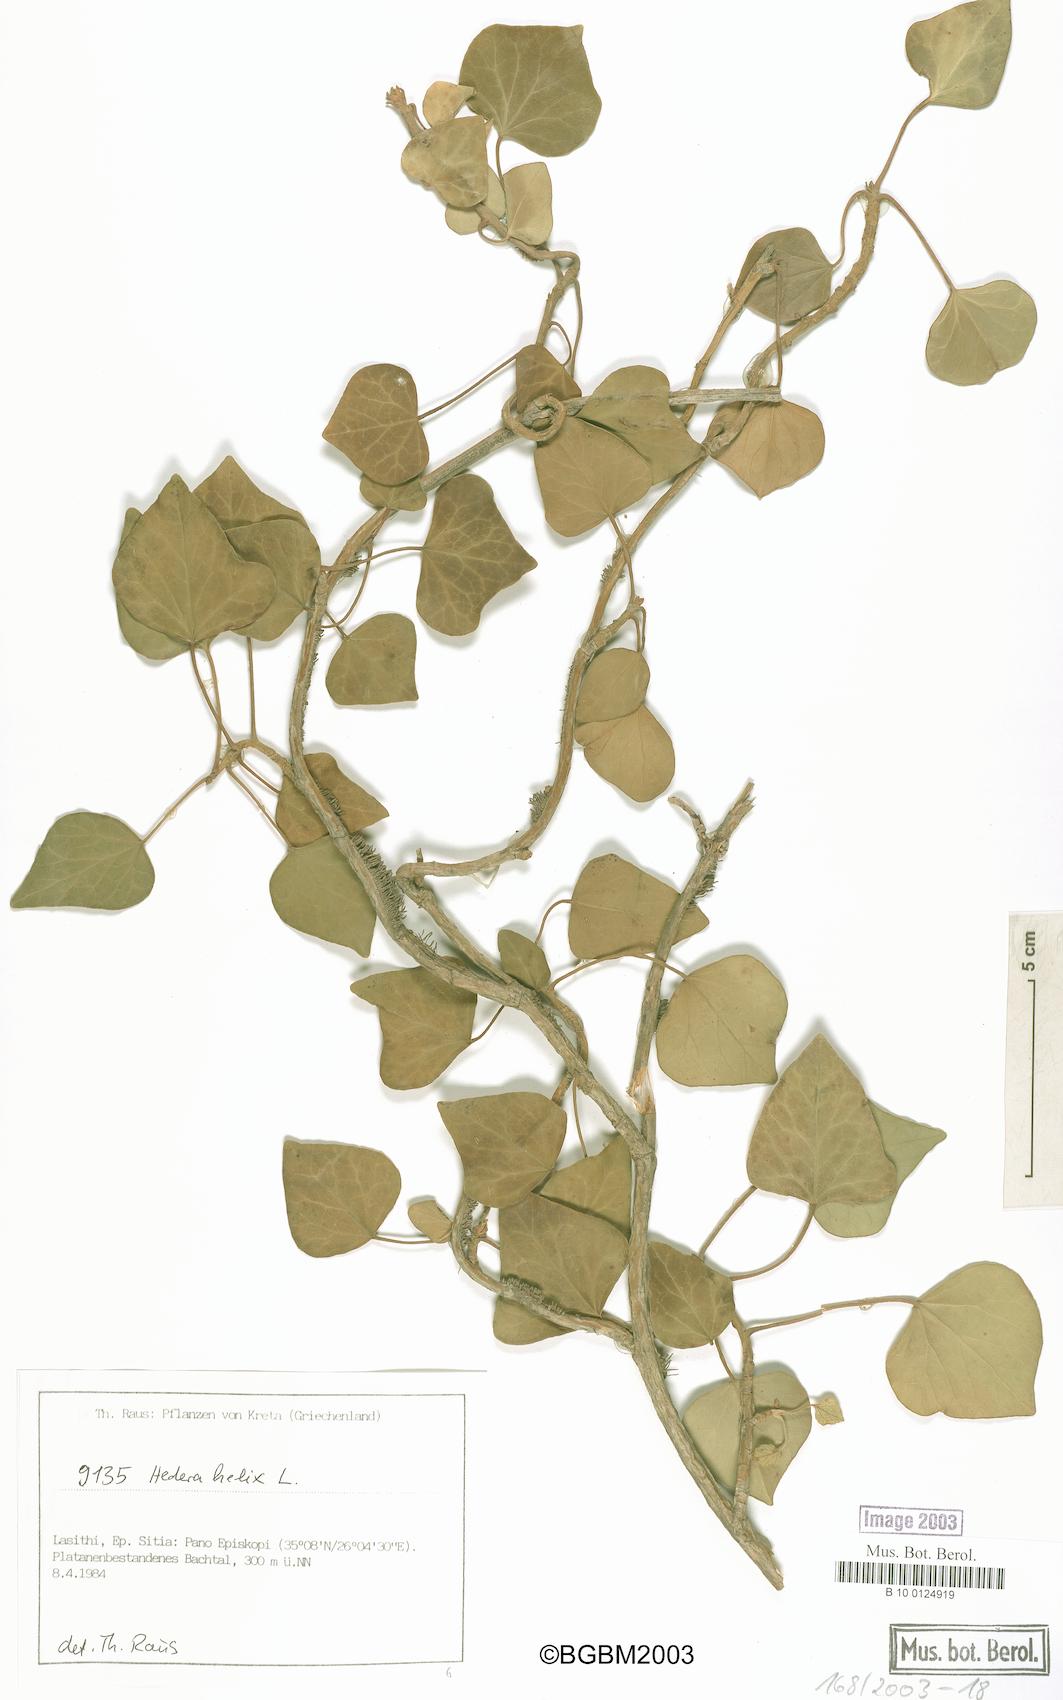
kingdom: Plantae
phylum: Tracheophyta
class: Magnoliopsida
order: Apiales
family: Araliaceae
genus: Hedera
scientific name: Hedera helix
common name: Ivy
